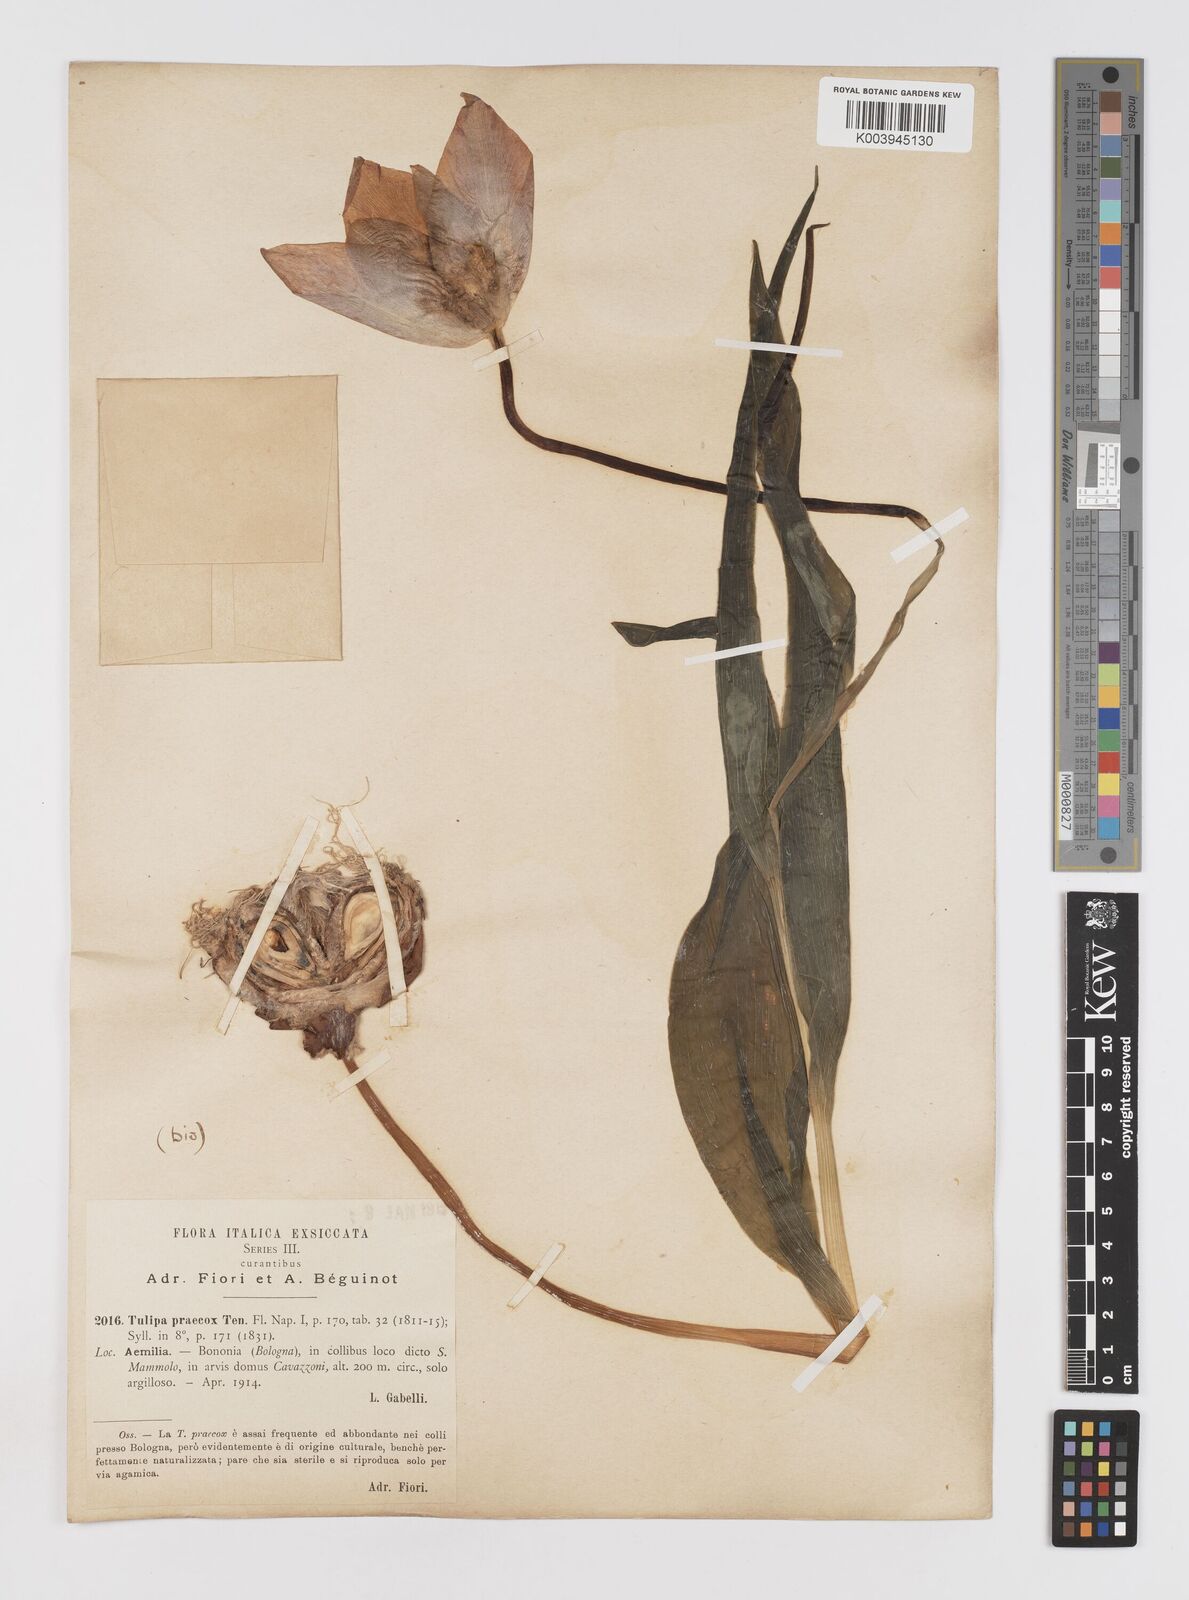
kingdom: Plantae
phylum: Tracheophyta
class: Liliopsida
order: Liliales
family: Liliaceae
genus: Tulipa
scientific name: Tulipa
